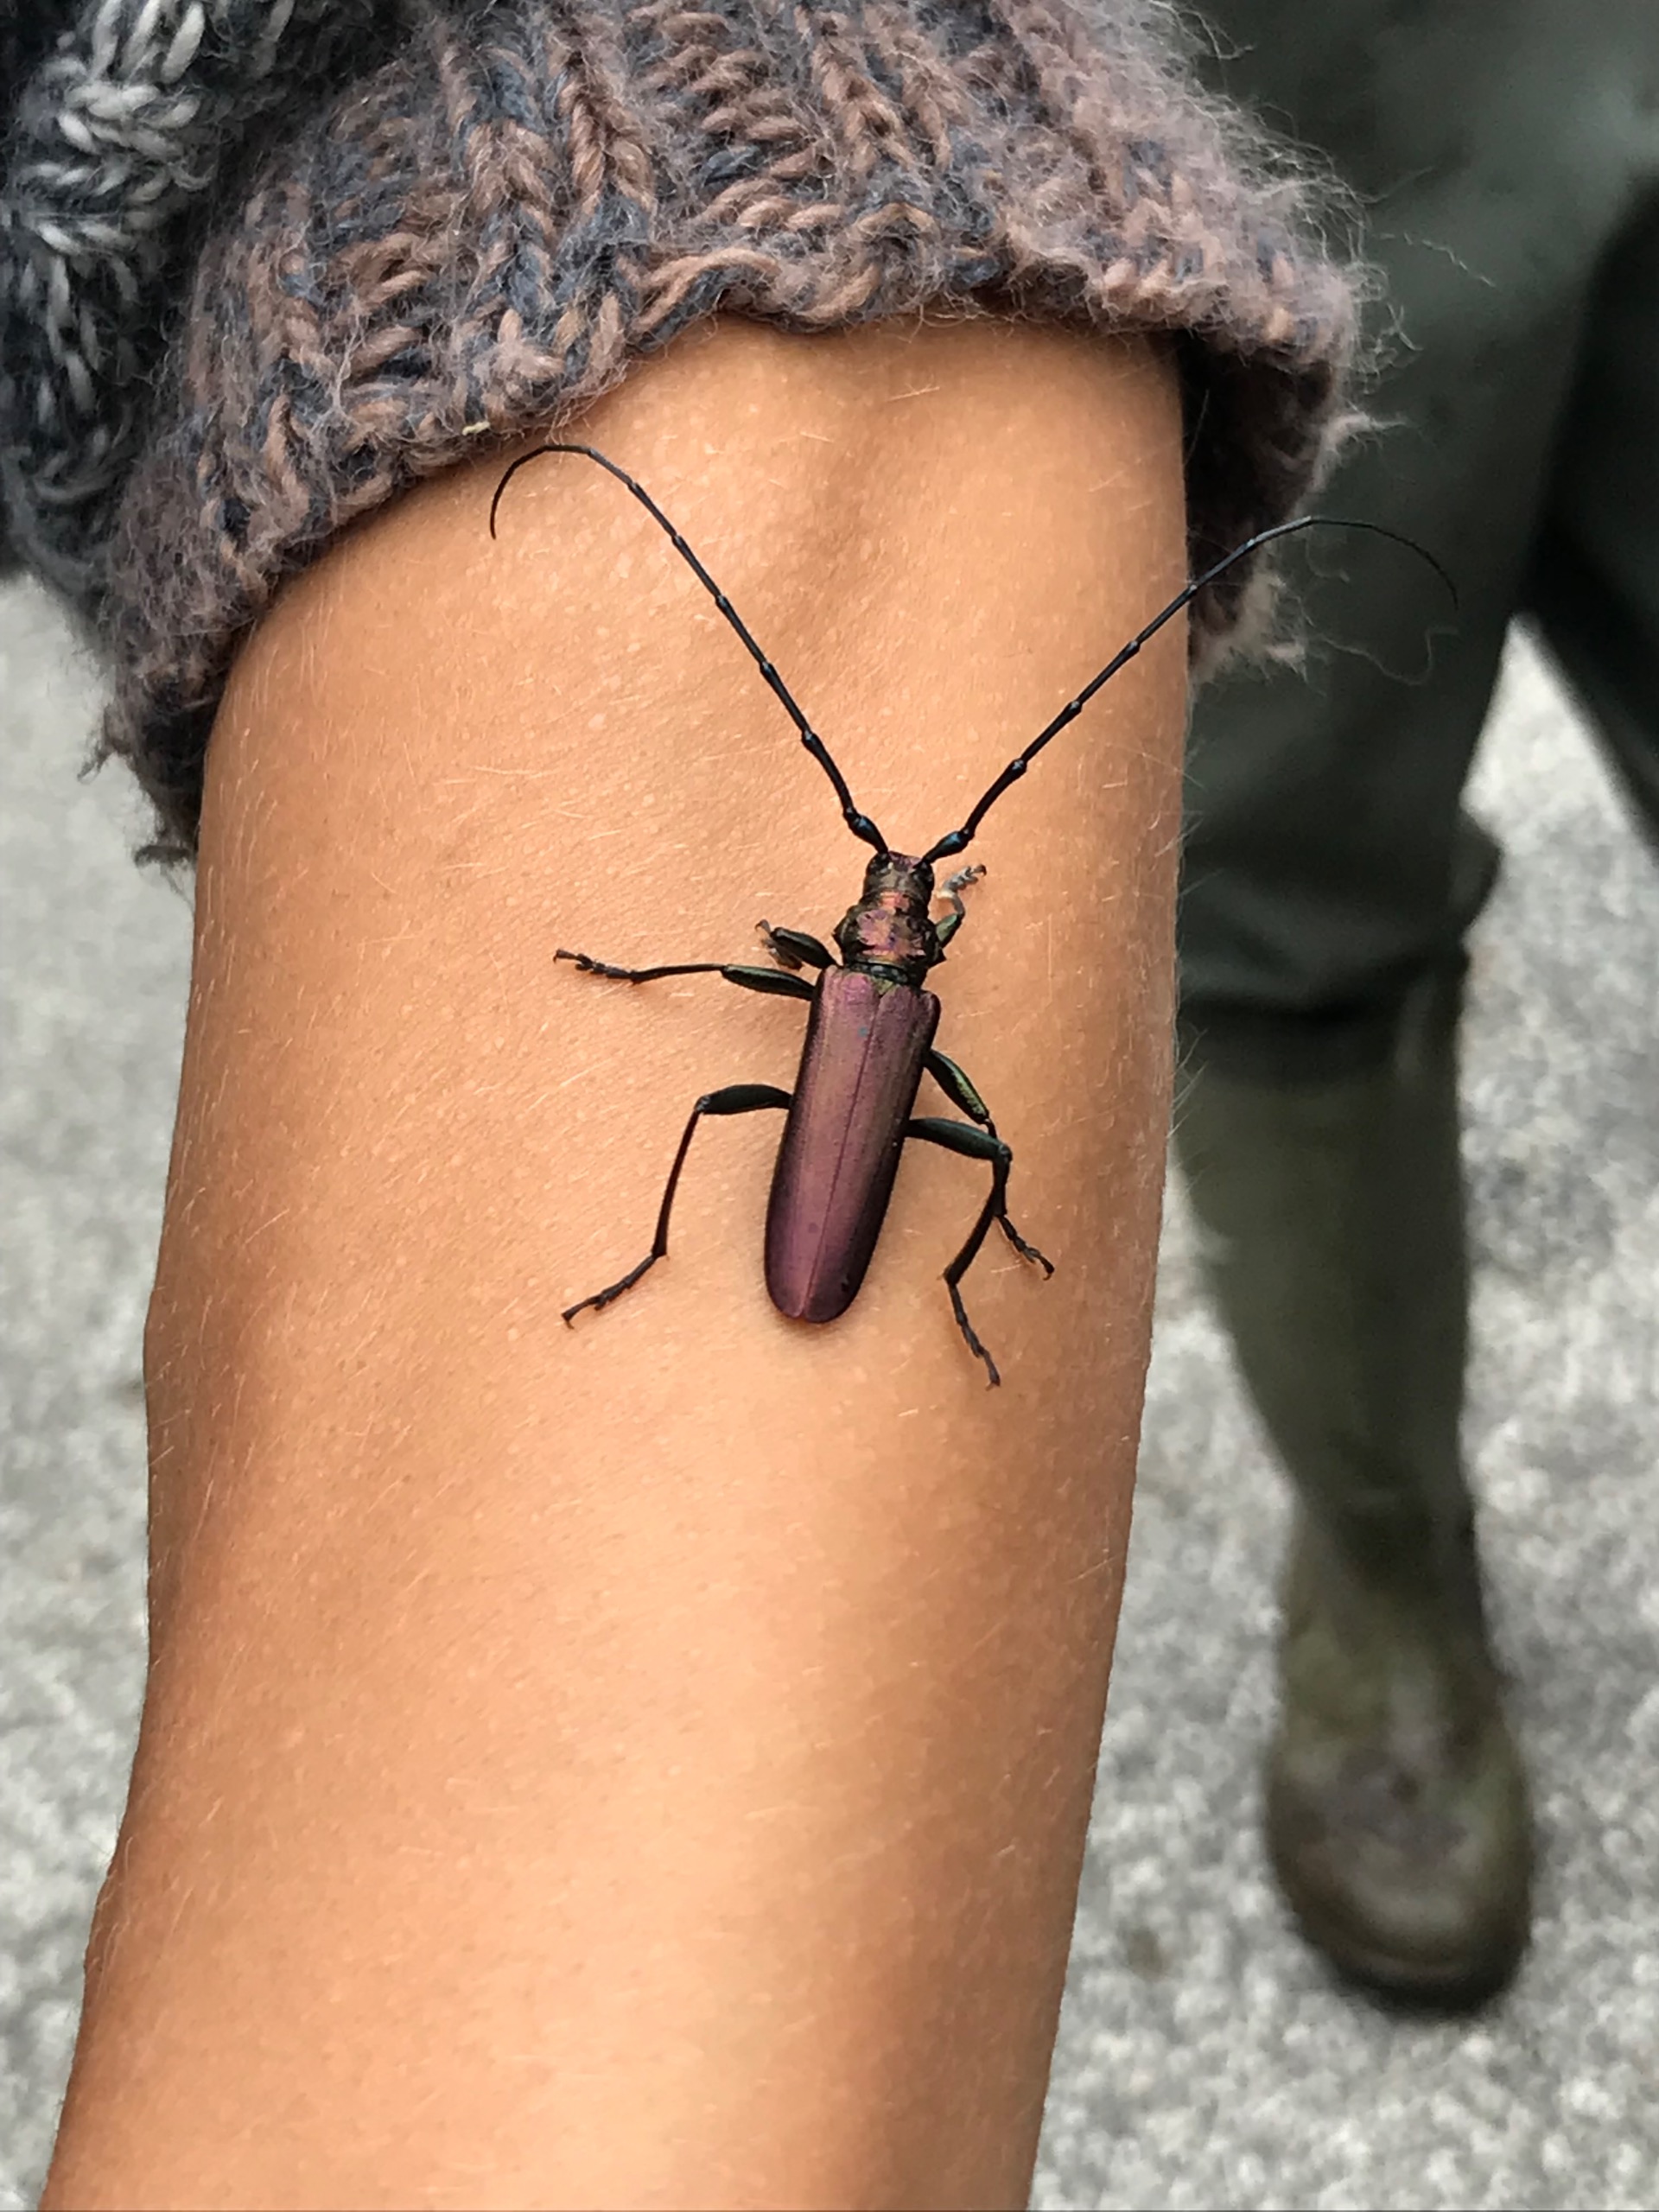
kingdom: Animalia
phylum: Arthropoda
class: Insecta
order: Coleoptera
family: Cerambycidae
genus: Aromia
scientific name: Aromia moschata
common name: Moskusbuk
